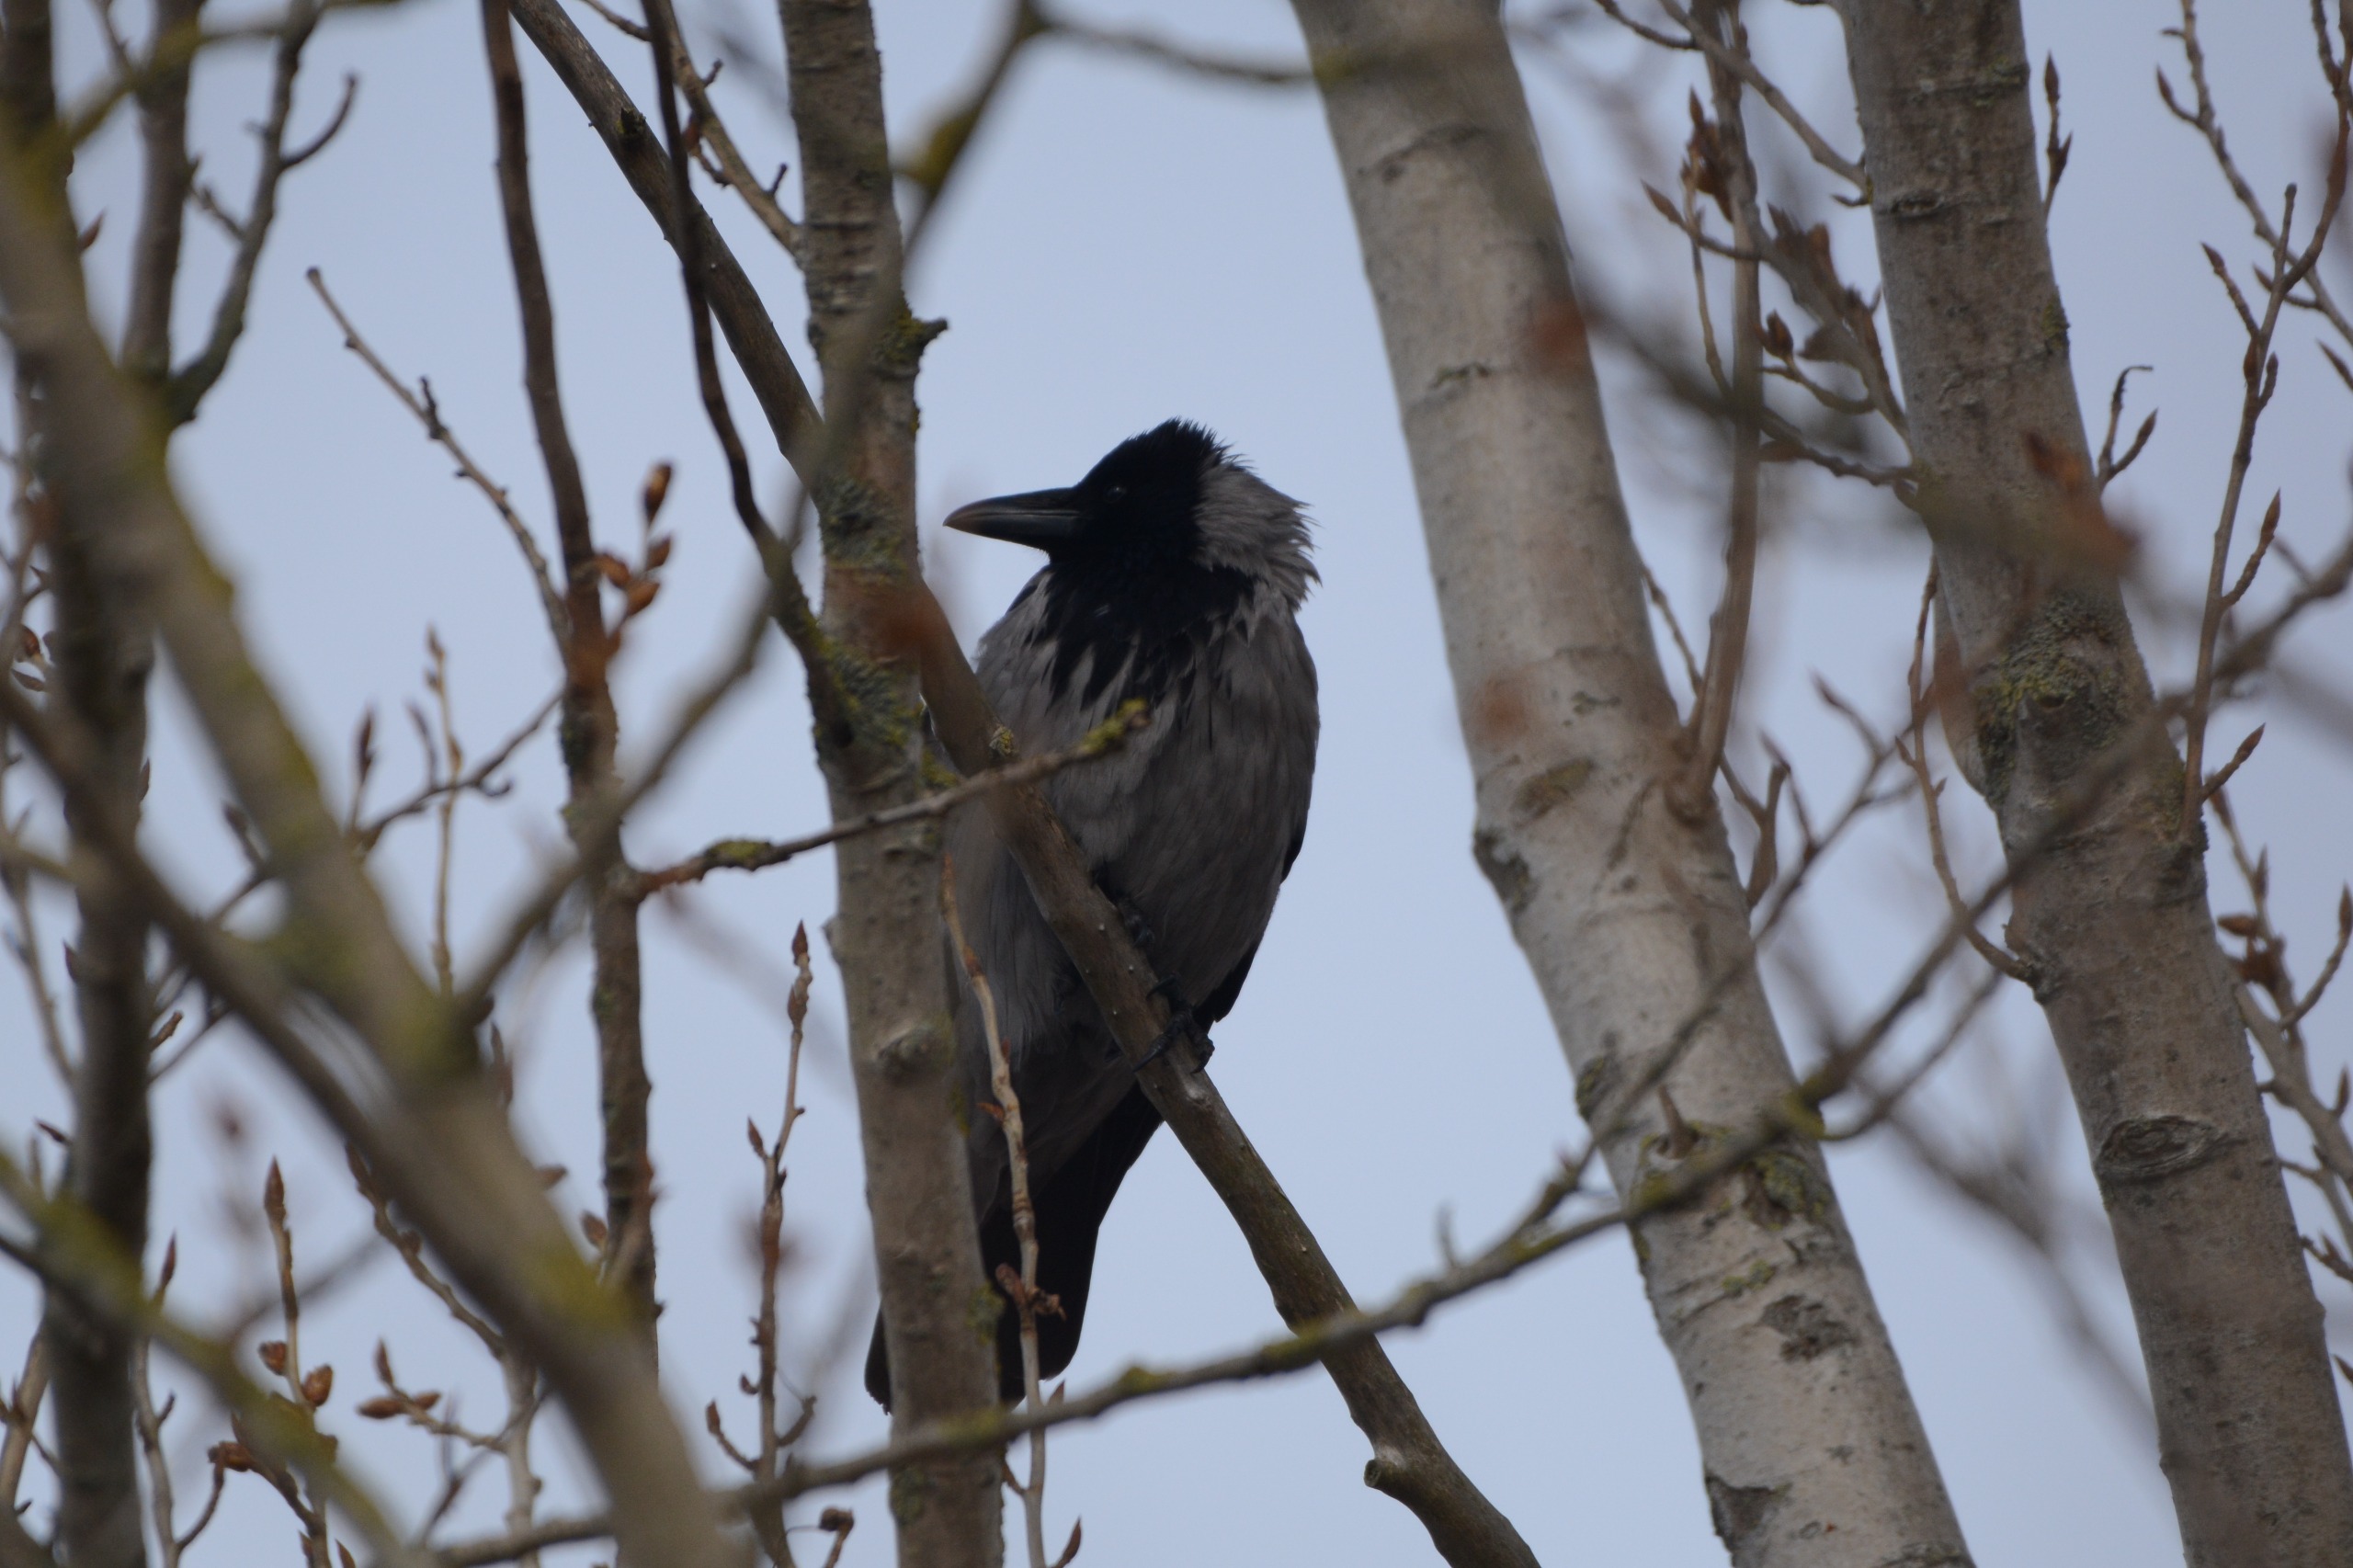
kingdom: Animalia
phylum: Chordata
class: Aves
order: Passeriformes
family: Corvidae
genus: Corvus
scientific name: Corvus cornix
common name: Gråkrage
